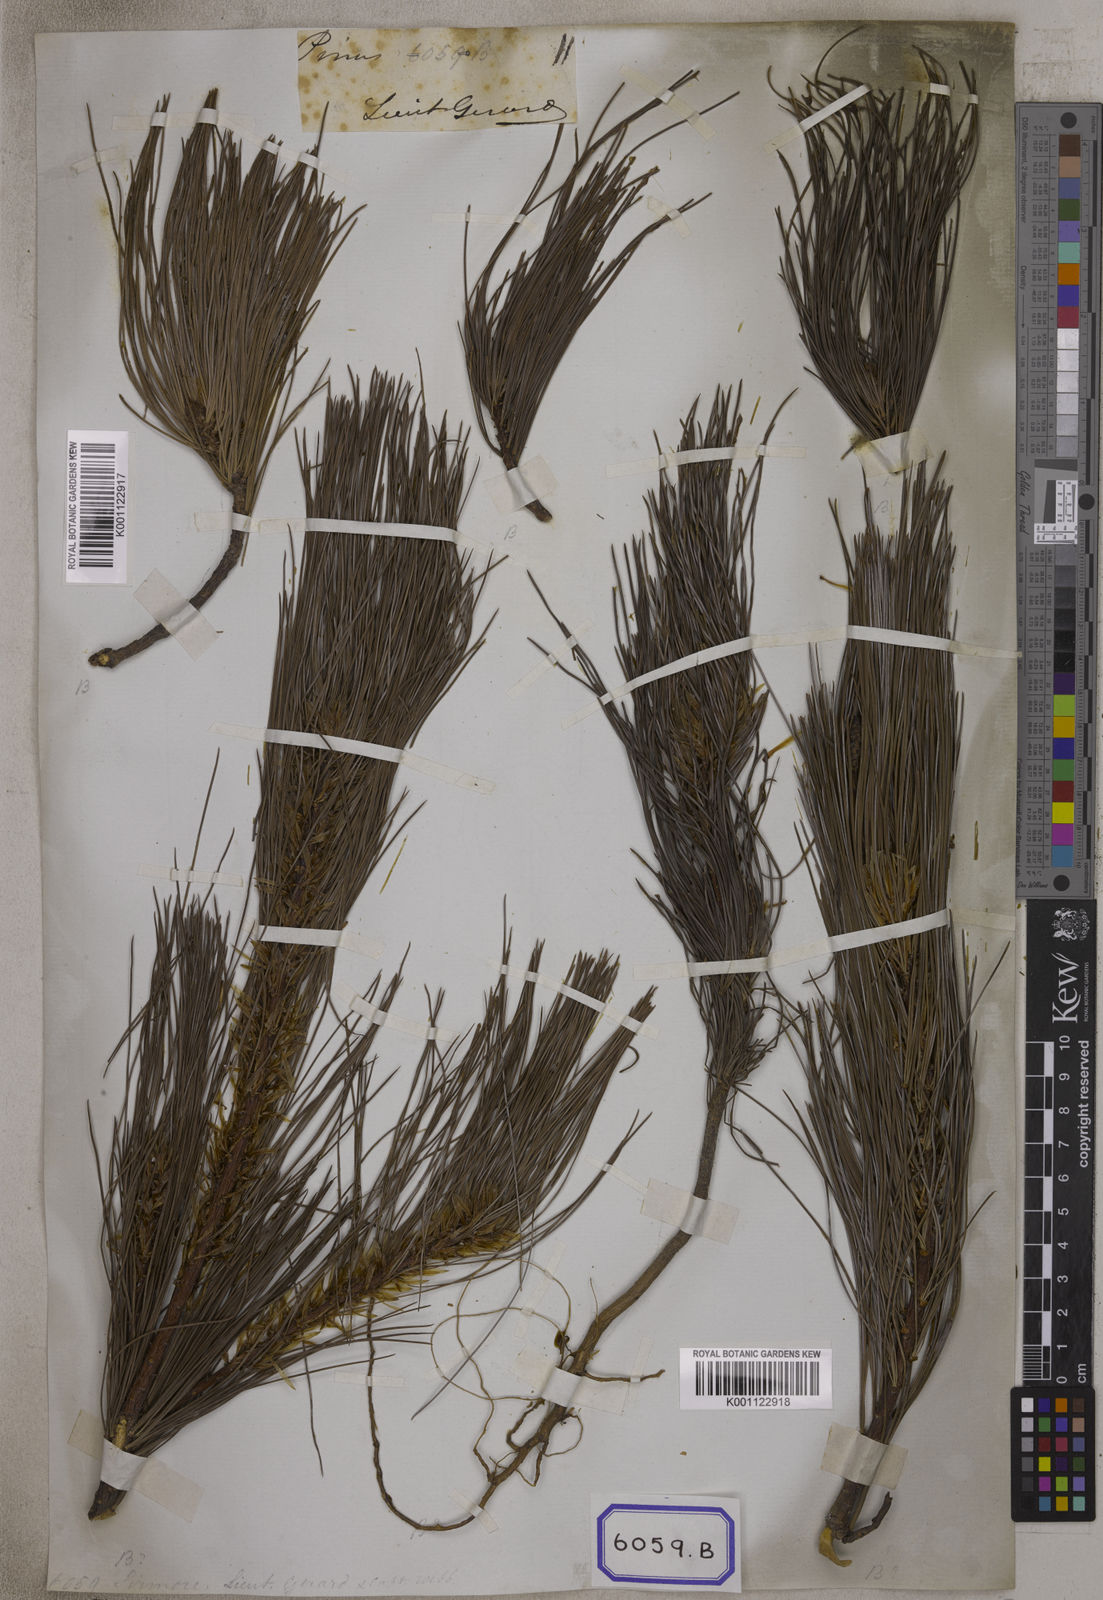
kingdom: Plantae
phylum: Tracheophyta
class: Pinopsida
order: Pinales
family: Pinaceae
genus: Pinus
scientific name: Pinus
